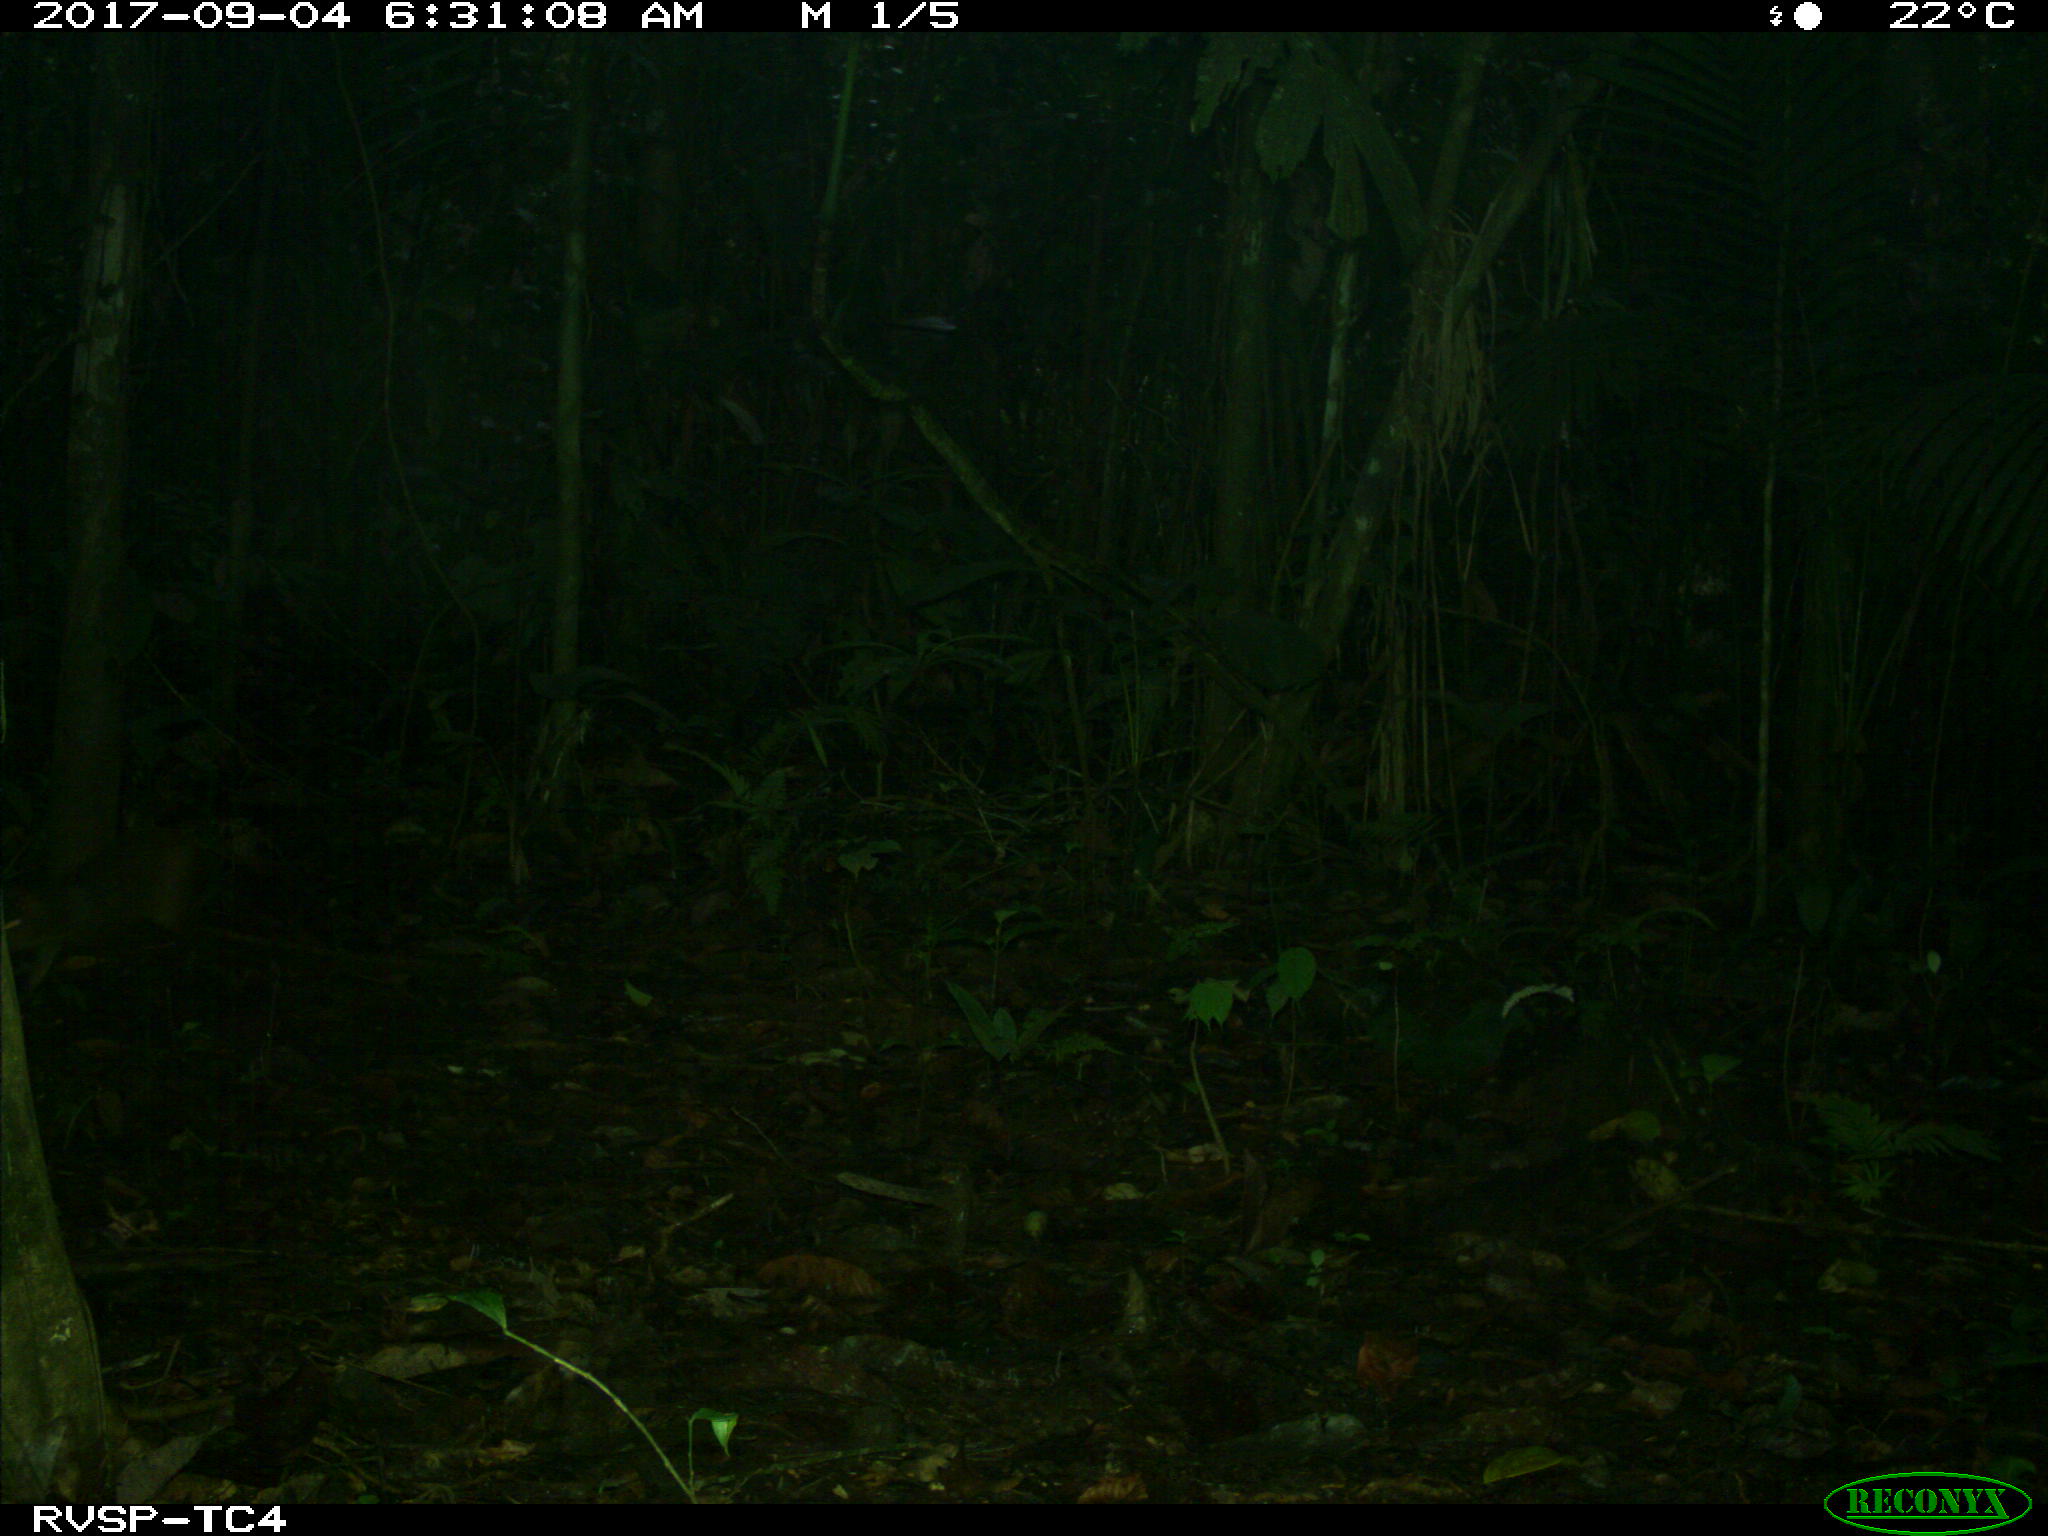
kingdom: Animalia
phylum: Chordata
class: Mammalia
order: Rodentia
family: Dasyproctidae
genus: Dasyprocta
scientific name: Dasyprocta punctata
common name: Central american agouti
